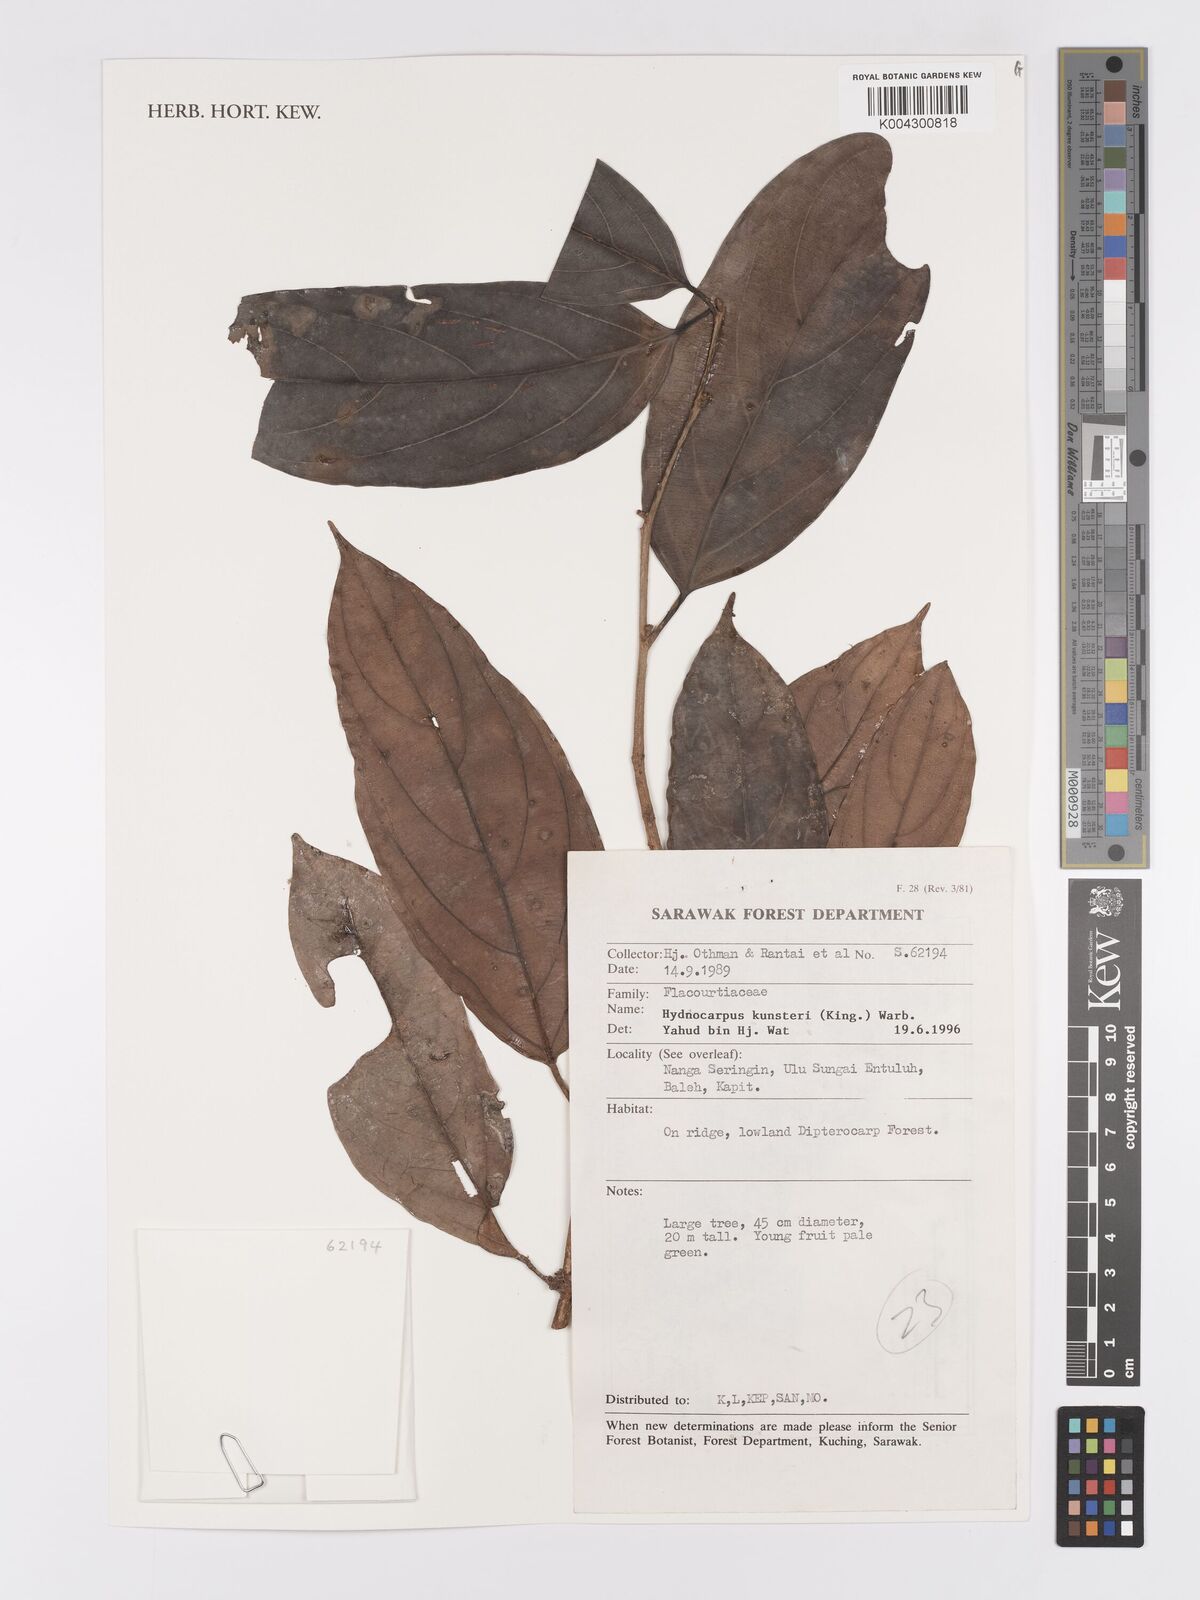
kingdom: Plantae
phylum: Tracheophyta
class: Magnoliopsida
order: Malpighiales
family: Achariaceae
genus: Hydnocarpus
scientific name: Hydnocarpus kunstleri
